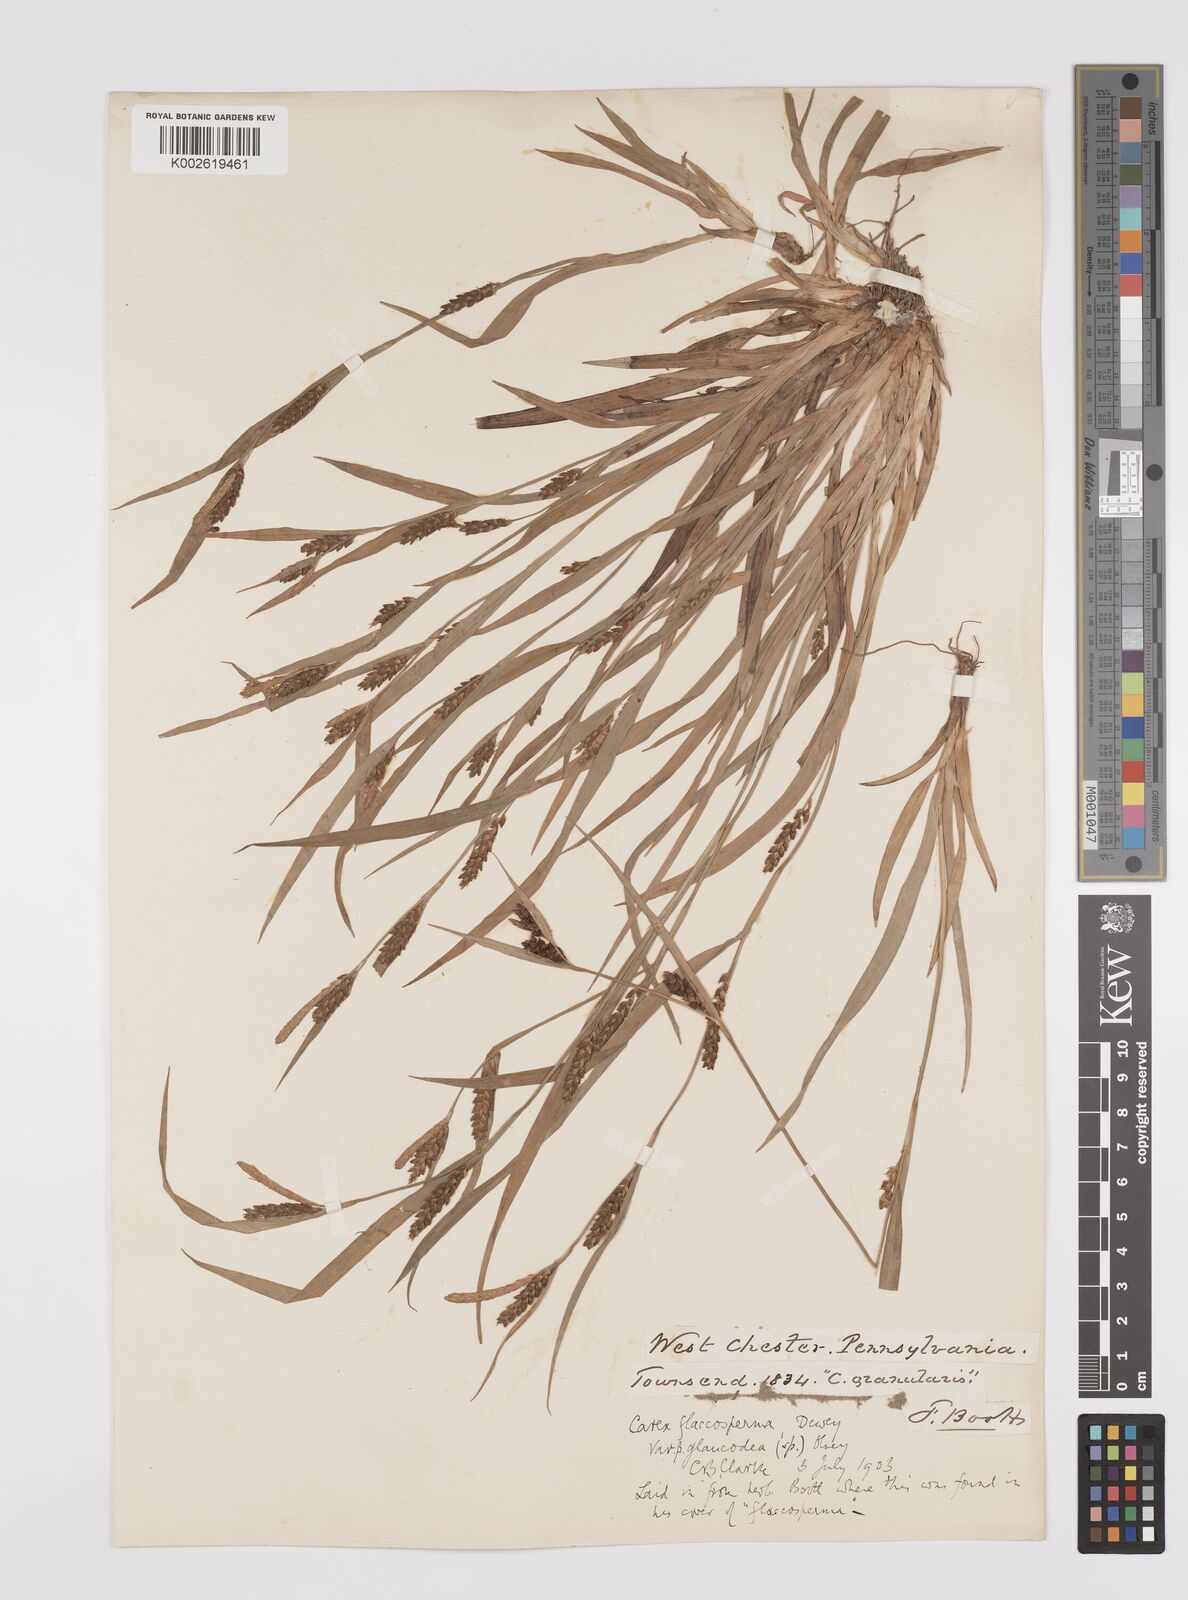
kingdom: Plantae
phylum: Tracheophyta
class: Liliopsida
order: Poales
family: Cyperaceae
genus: Carex
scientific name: Carex flaccosperma
